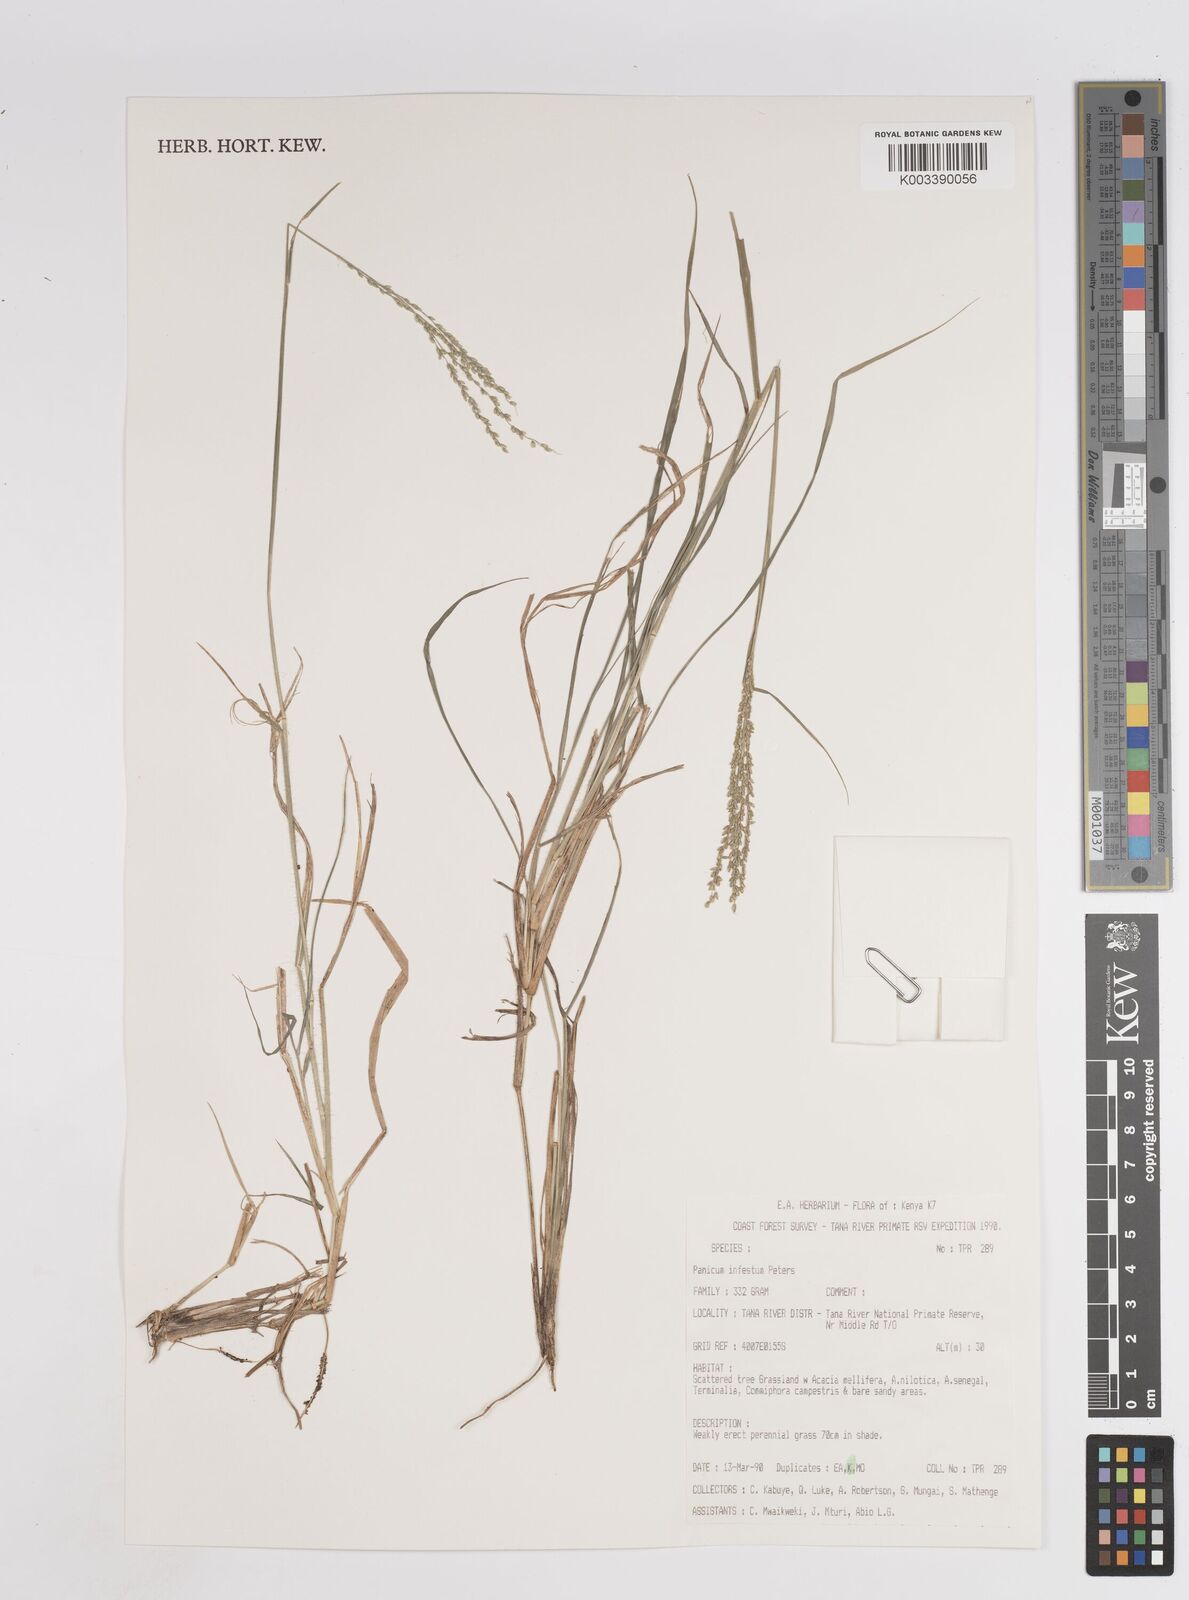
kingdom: Plantae
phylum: Tracheophyta
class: Liliopsida
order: Poales
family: Poaceae
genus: Megathyrsus
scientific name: Megathyrsus infestus
